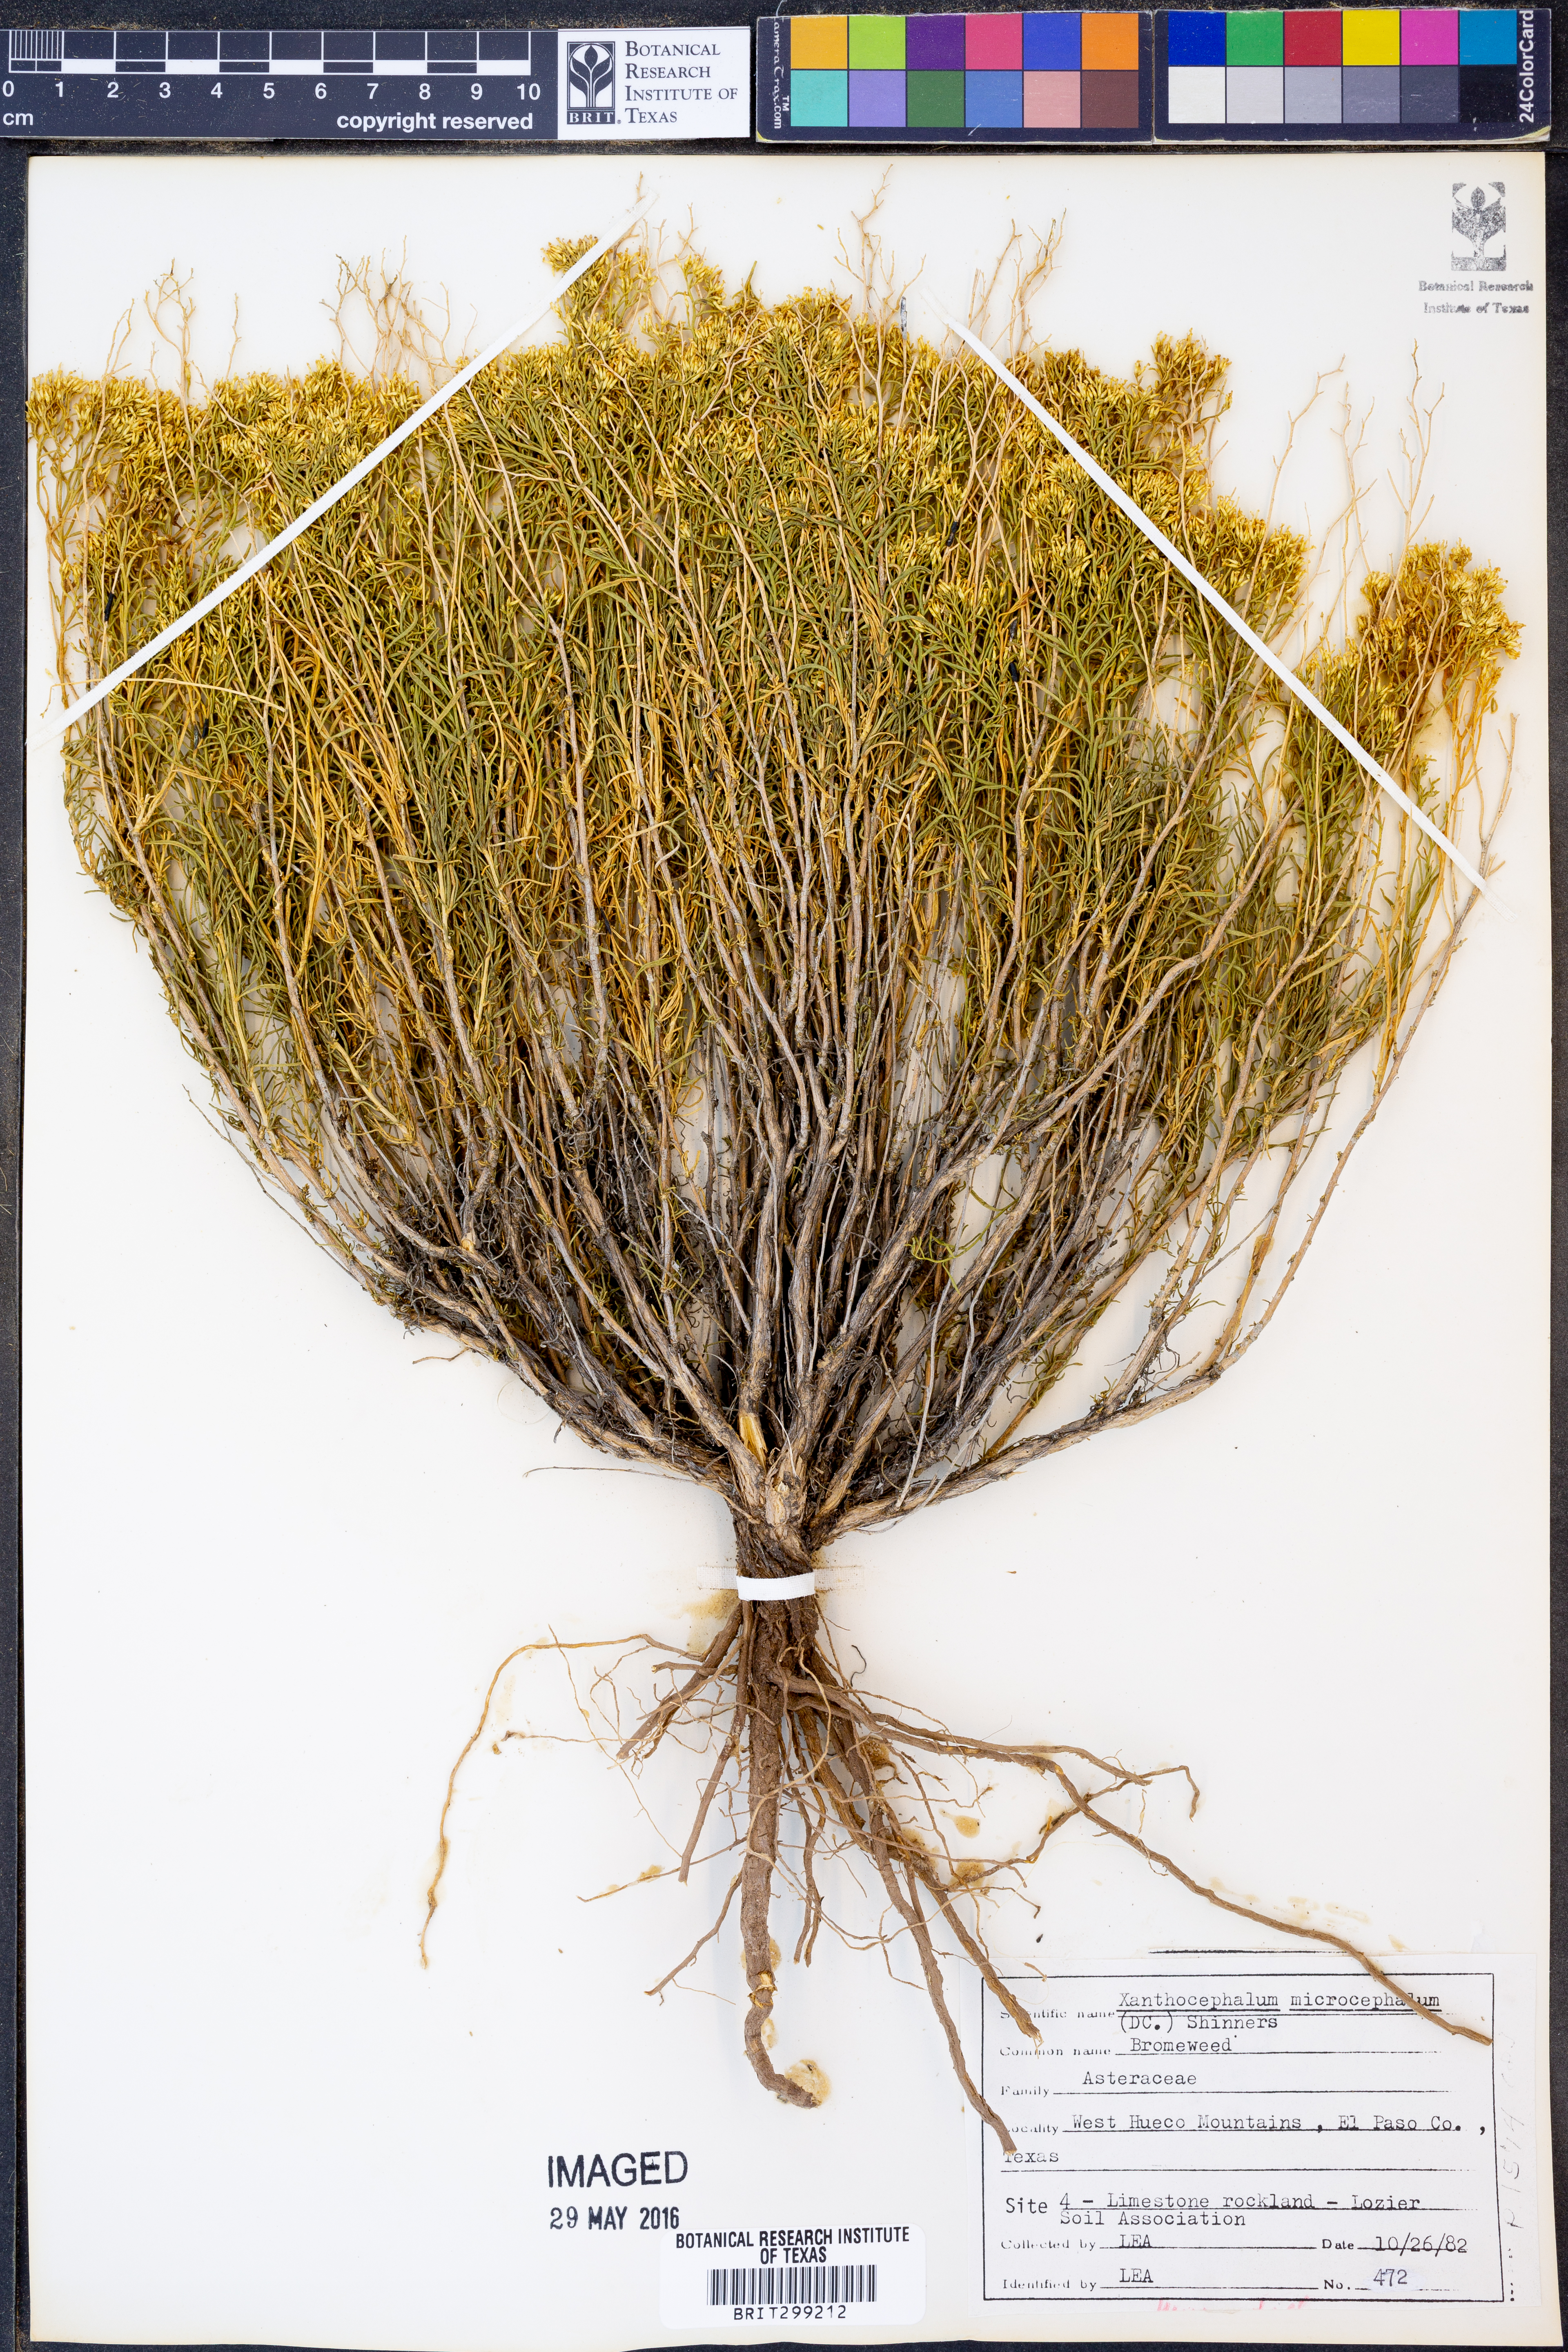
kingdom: Plantae
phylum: Tracheophyta
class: Magnoliopsida
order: Asterales
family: Asteraceae
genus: Gutierrezia
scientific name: Gutierrezia microcephala
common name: Thread snakeweed
